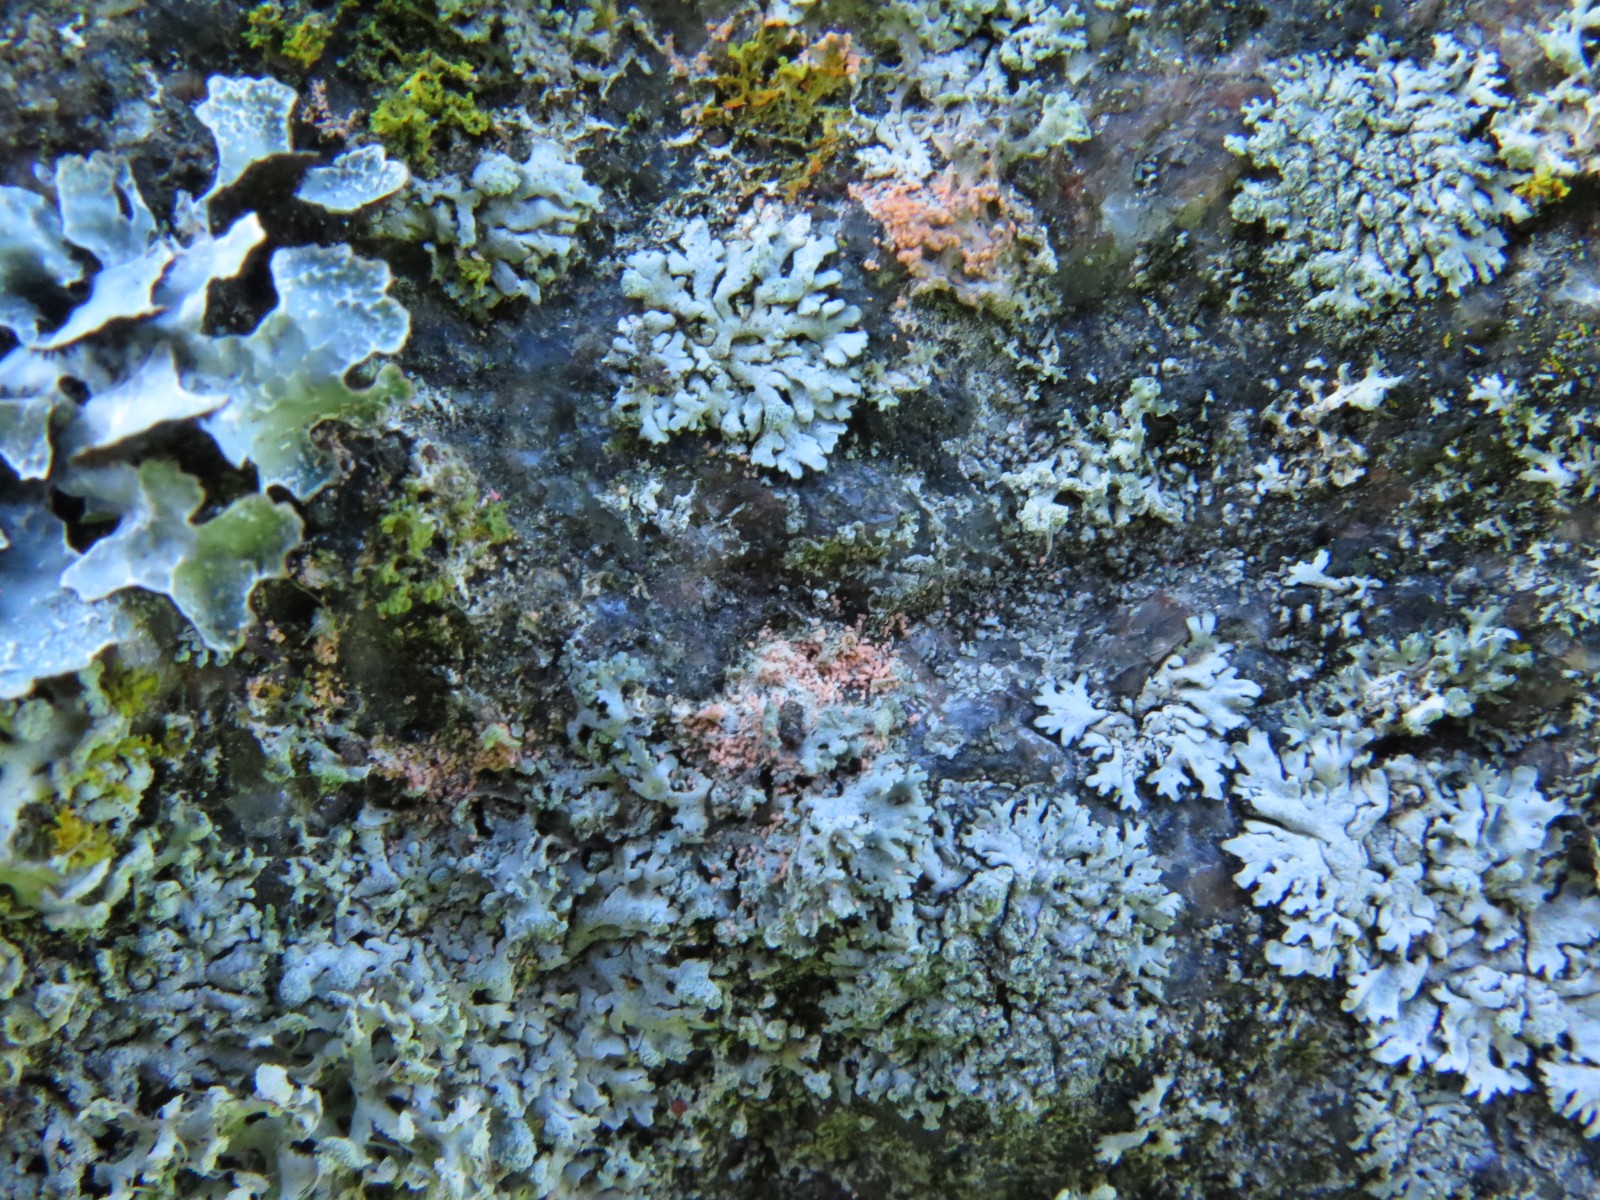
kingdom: Fungi
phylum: Basidiomycota
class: Agaricomycetes
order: Corticiales
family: Corticiaceae
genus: Erythricium
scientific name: Erythricium aurantiacum
